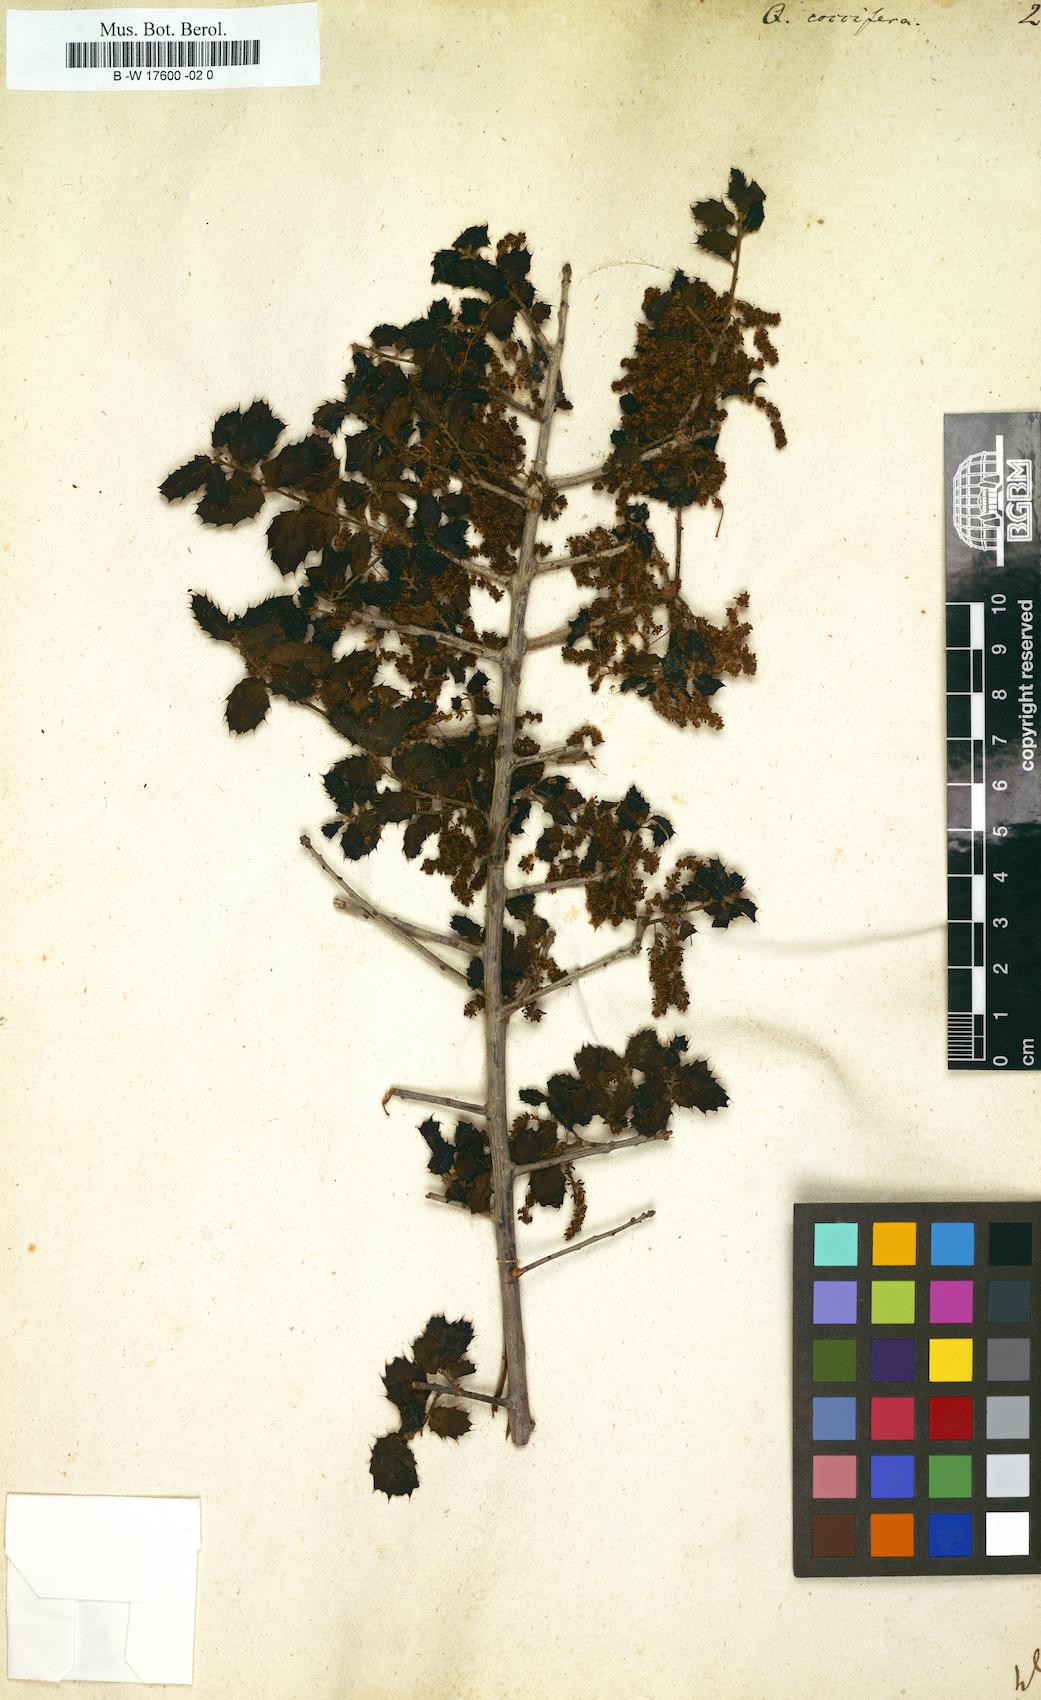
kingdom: Plantae
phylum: Tracheophyta
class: Magnoliopsida
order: Fagales
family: Fagaceae
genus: Quercus
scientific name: Quercus coccifera
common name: Kermes oak
